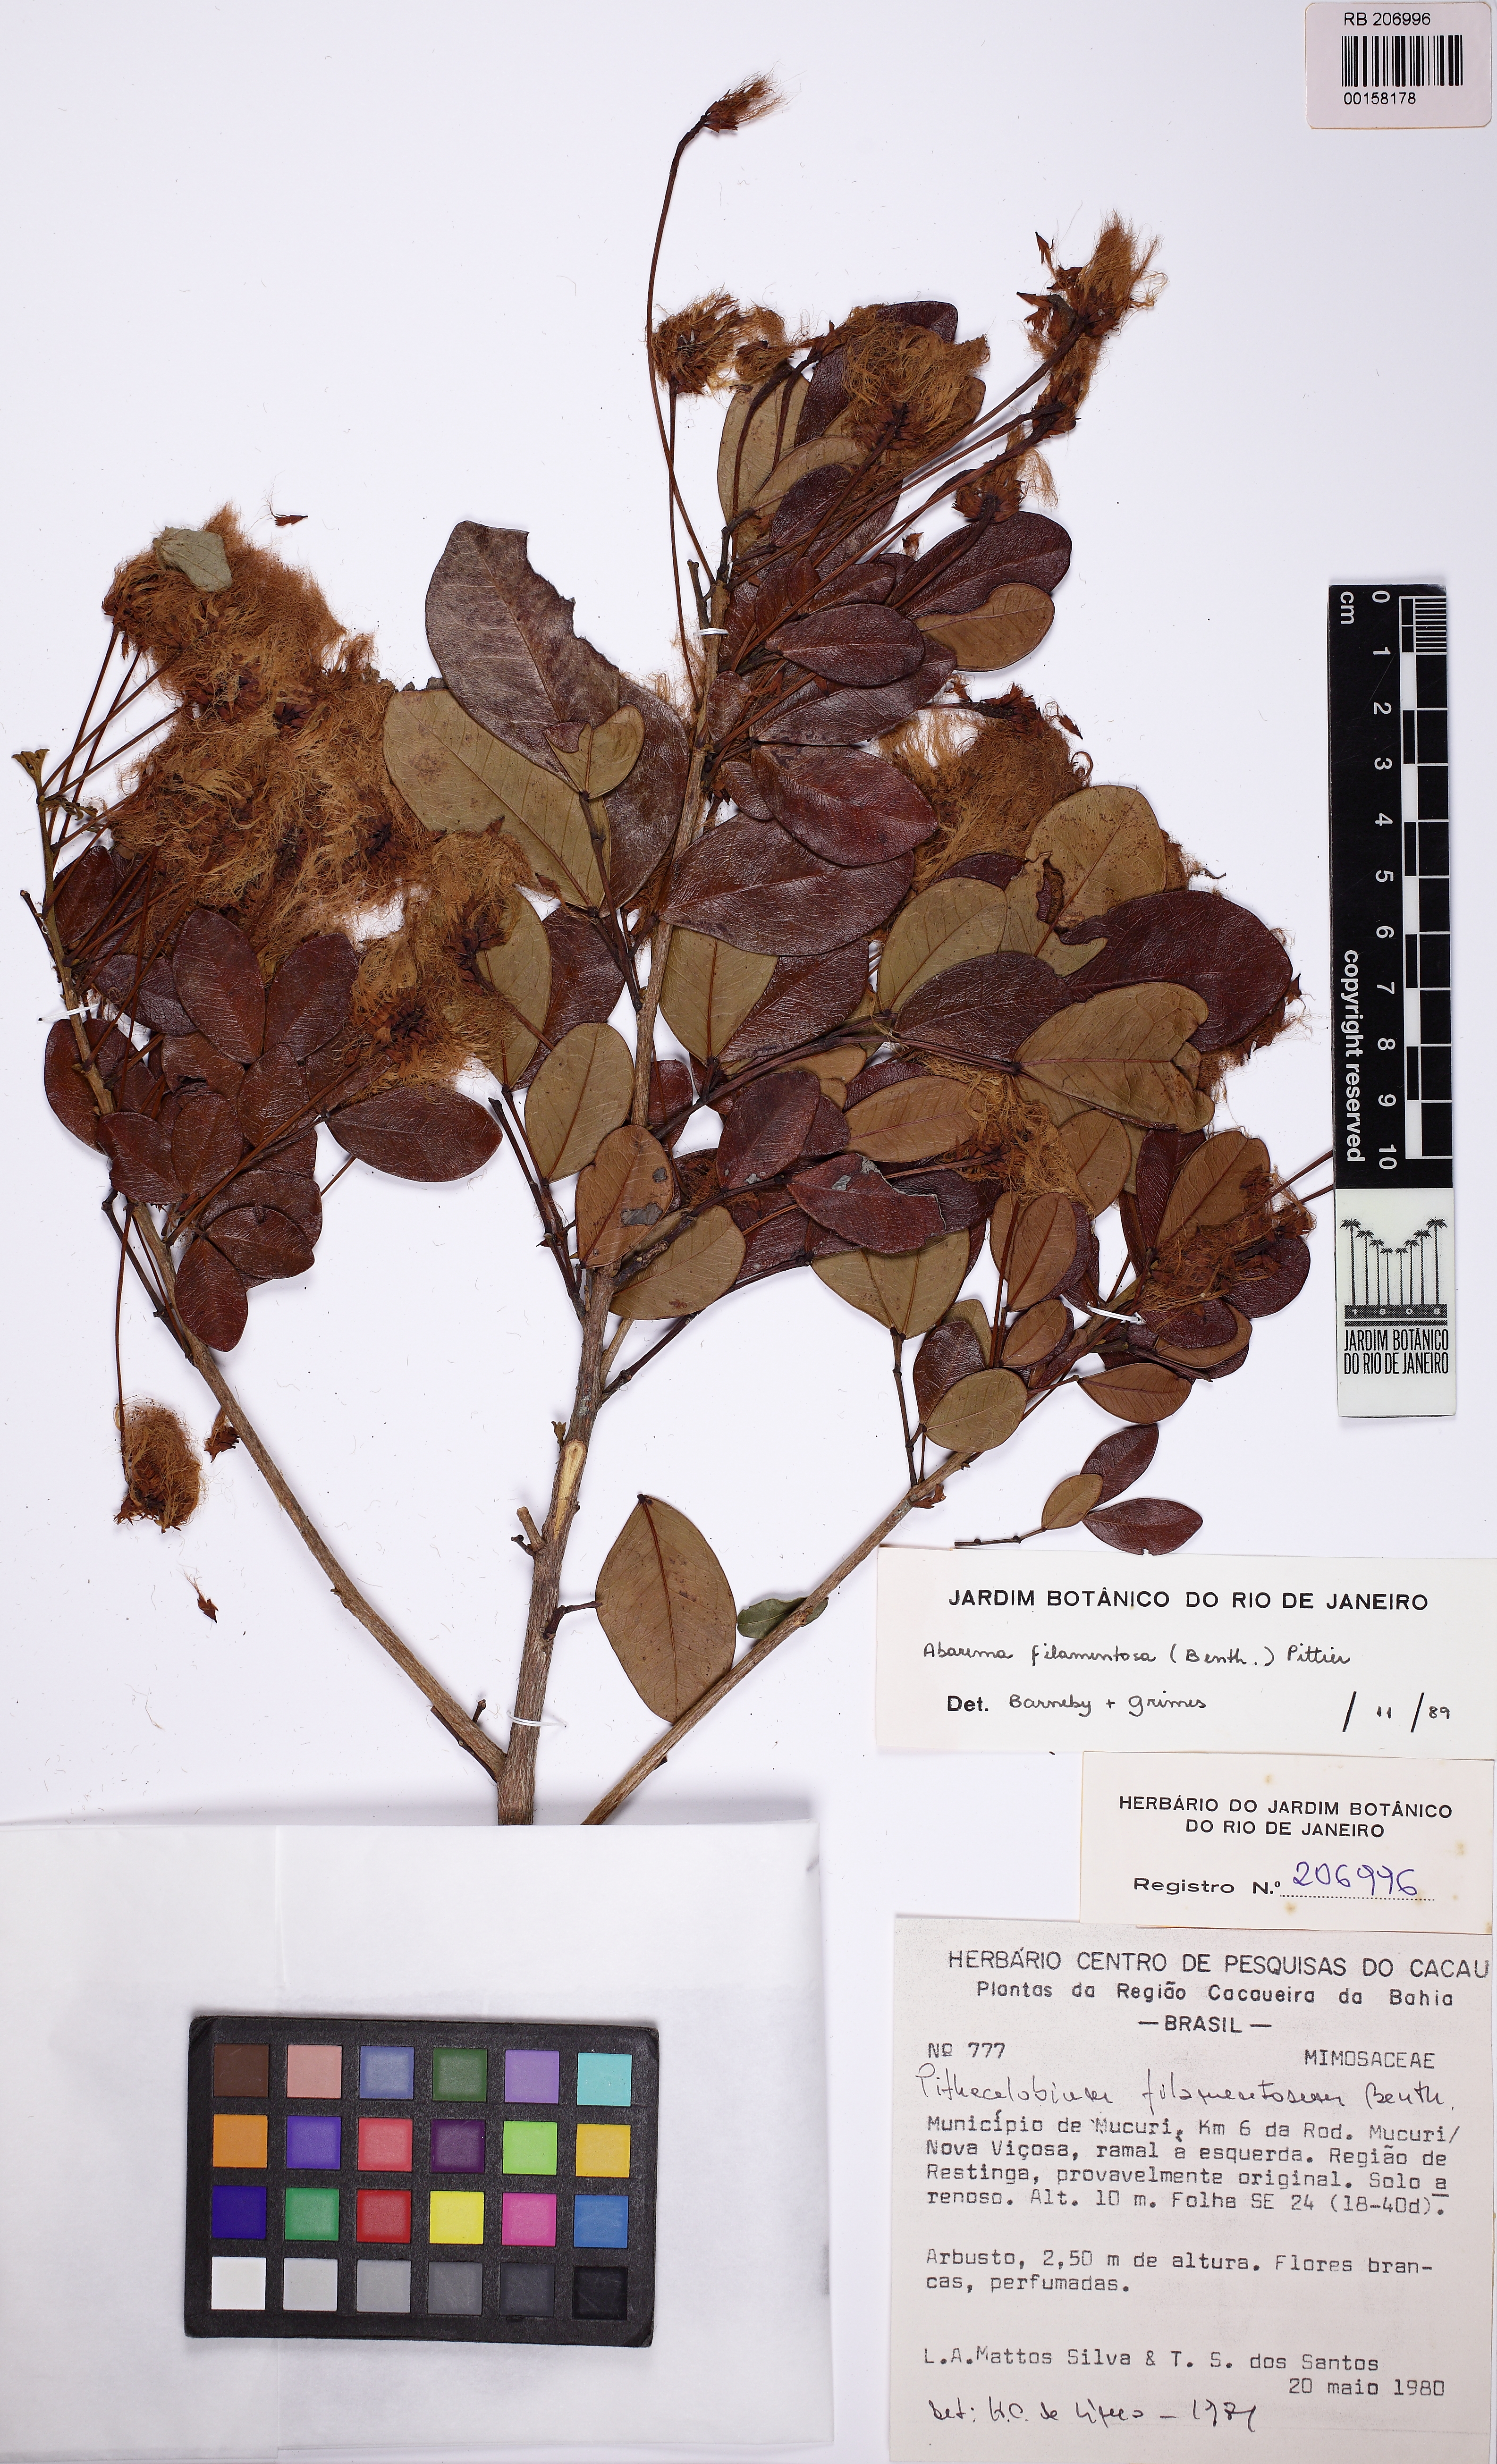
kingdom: Plantae
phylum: Tracheophyta
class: Magnoliopsida
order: Fabales
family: Fabaceae
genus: Jupunba
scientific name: Jupunba filamentosa
